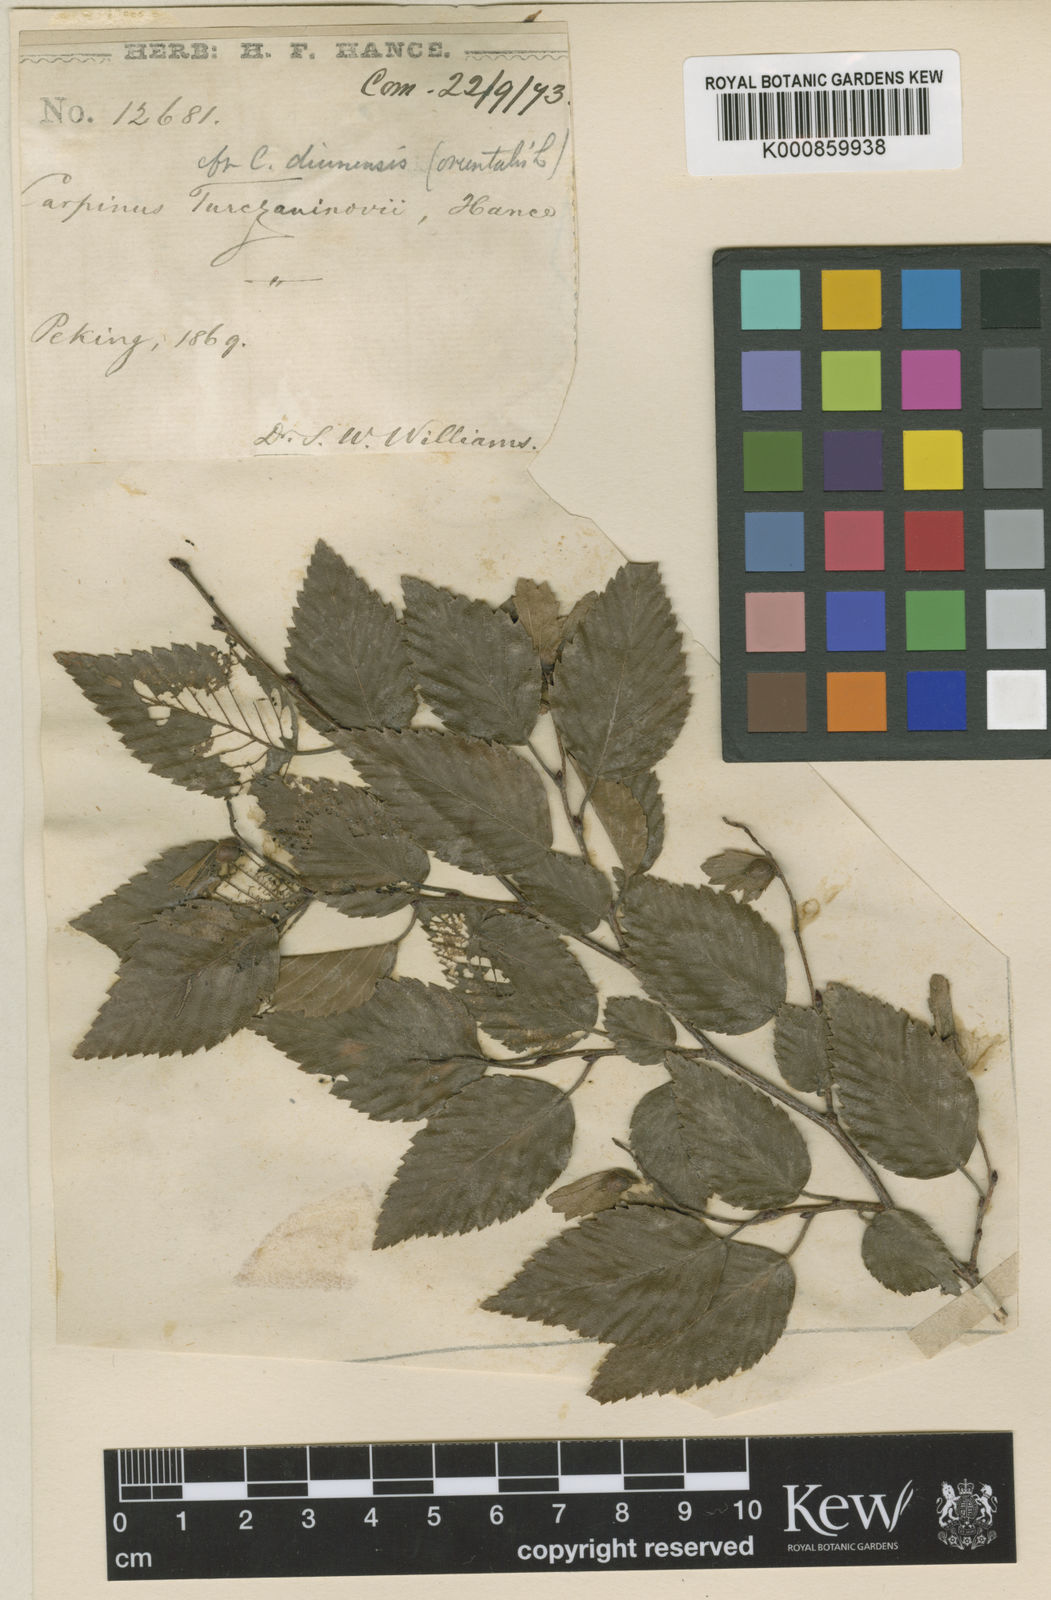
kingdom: Plantae
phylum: Tracheophyta
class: Magnoliopsida
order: Fagales
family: Betulaceae
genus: Carpinus
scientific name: Carpinus
